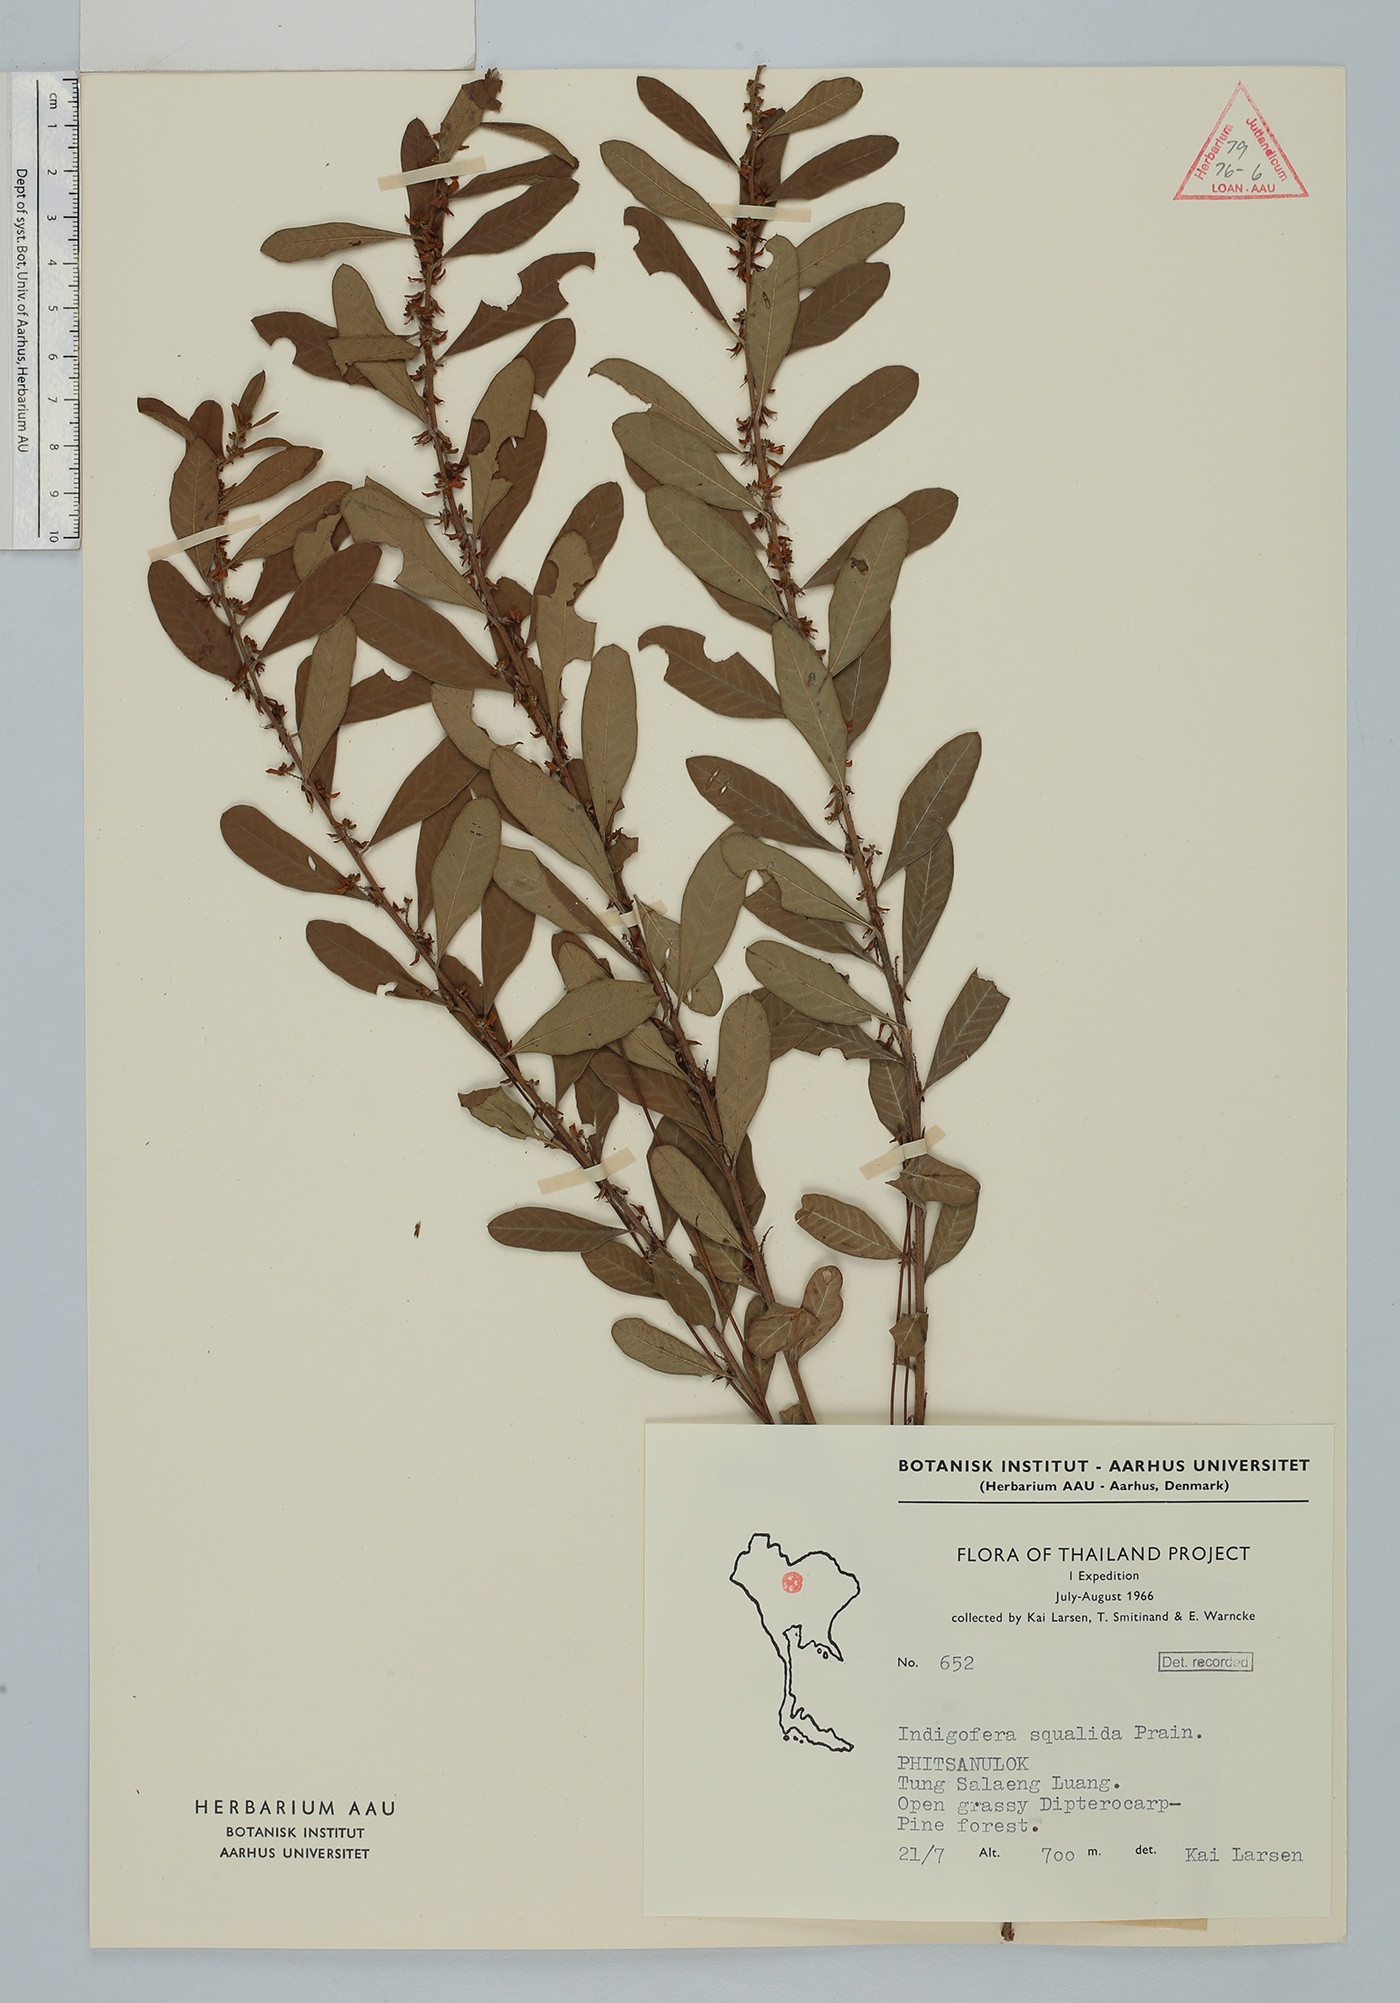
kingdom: Plantae
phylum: Tracheophyta
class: Magnoliopsida
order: Fabales
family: Fabaceae
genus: Indigofera
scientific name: Indigofera squalida
